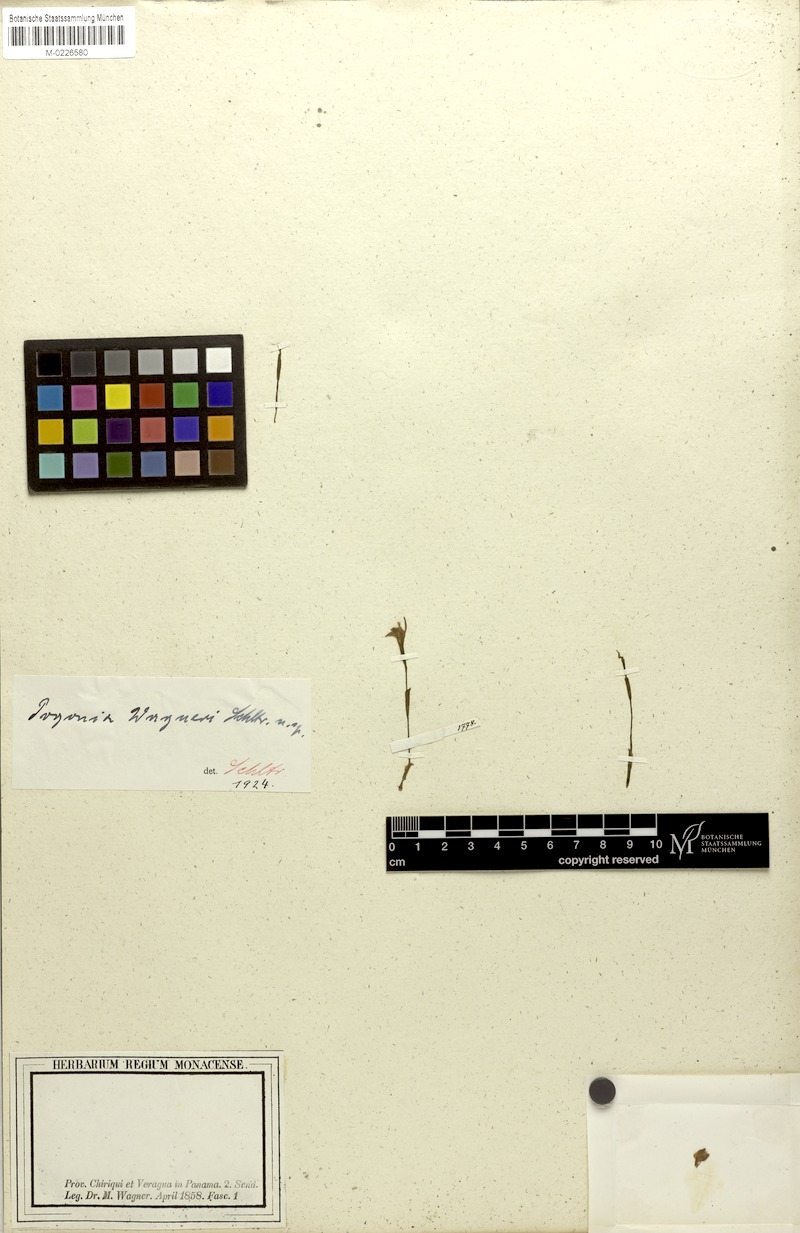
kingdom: Plantae
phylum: Tracheophyta
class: Liliopsida
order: Asparagales
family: Orchidaceae
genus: Stelis
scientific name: Stelis wagneri
